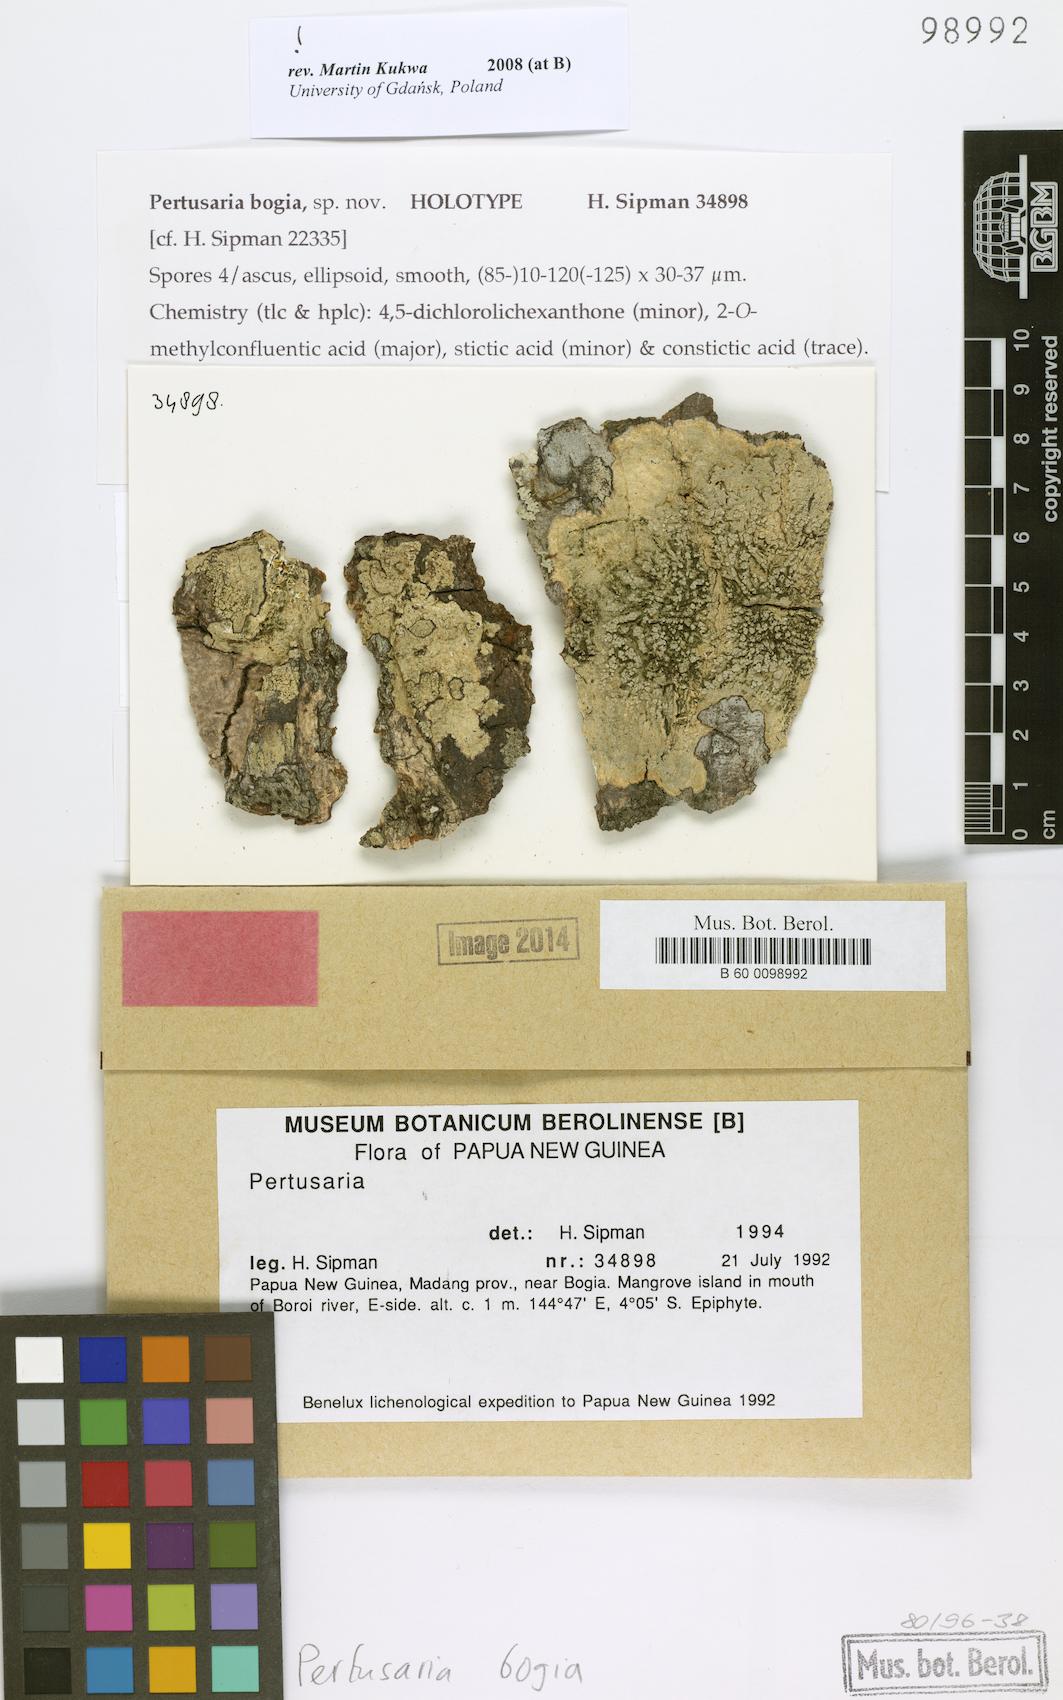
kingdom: Fungi
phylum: Ascomycota
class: Lecanoromycetes
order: Pertusariales
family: Pertusariaceae
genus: Pertusaria
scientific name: Pertusaria
